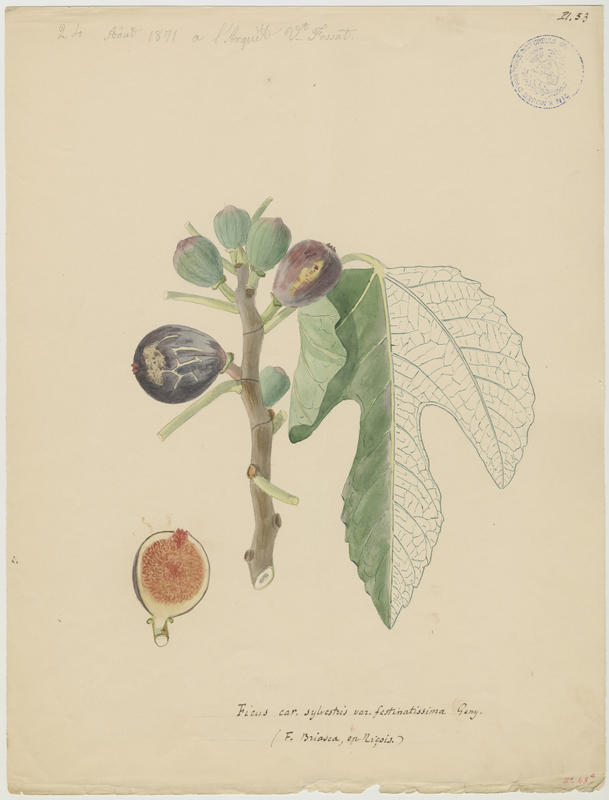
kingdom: Plantae
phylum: Tracheophyta
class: Magnoliopsida
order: Rosales
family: Moraceae
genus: Ficus
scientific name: Ficus carica
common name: Fig
